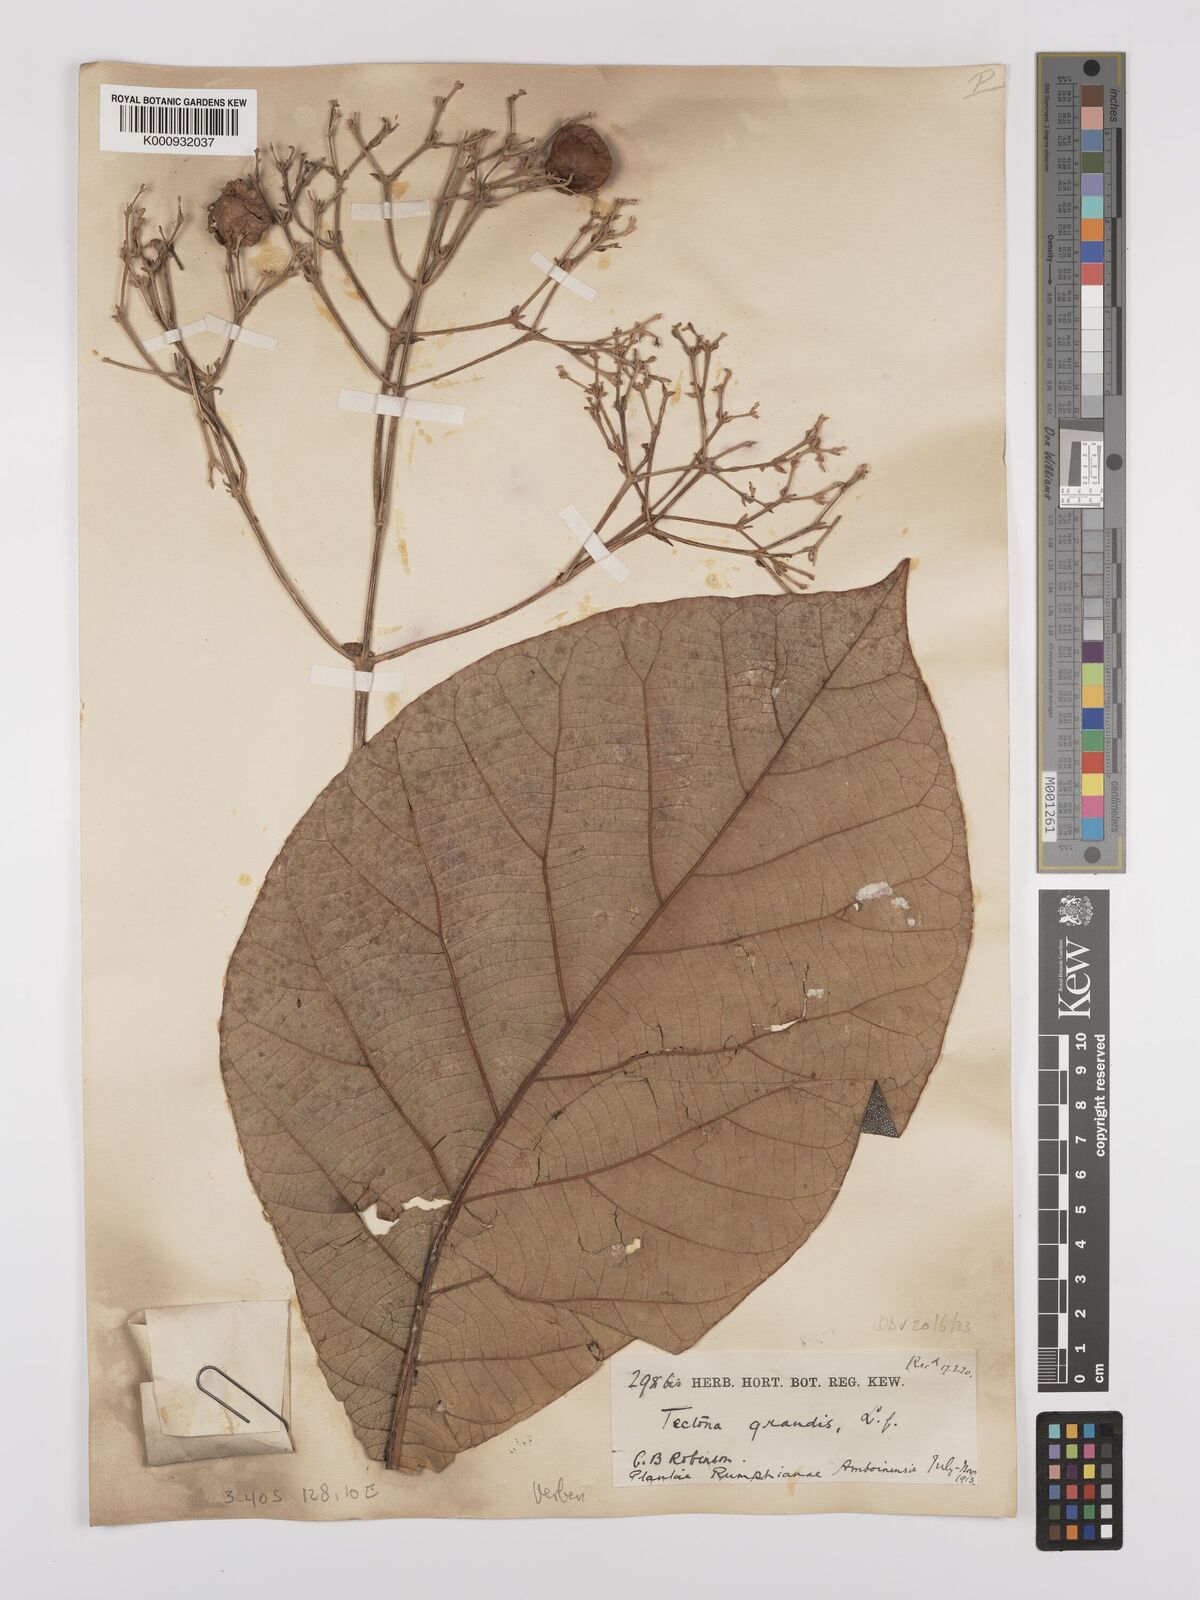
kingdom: Plantae
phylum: Tracheophyta
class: Magnoliopsida
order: Lamiales
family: Lamiaceae
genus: Tectona
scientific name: Tectona grandis
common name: Teak
